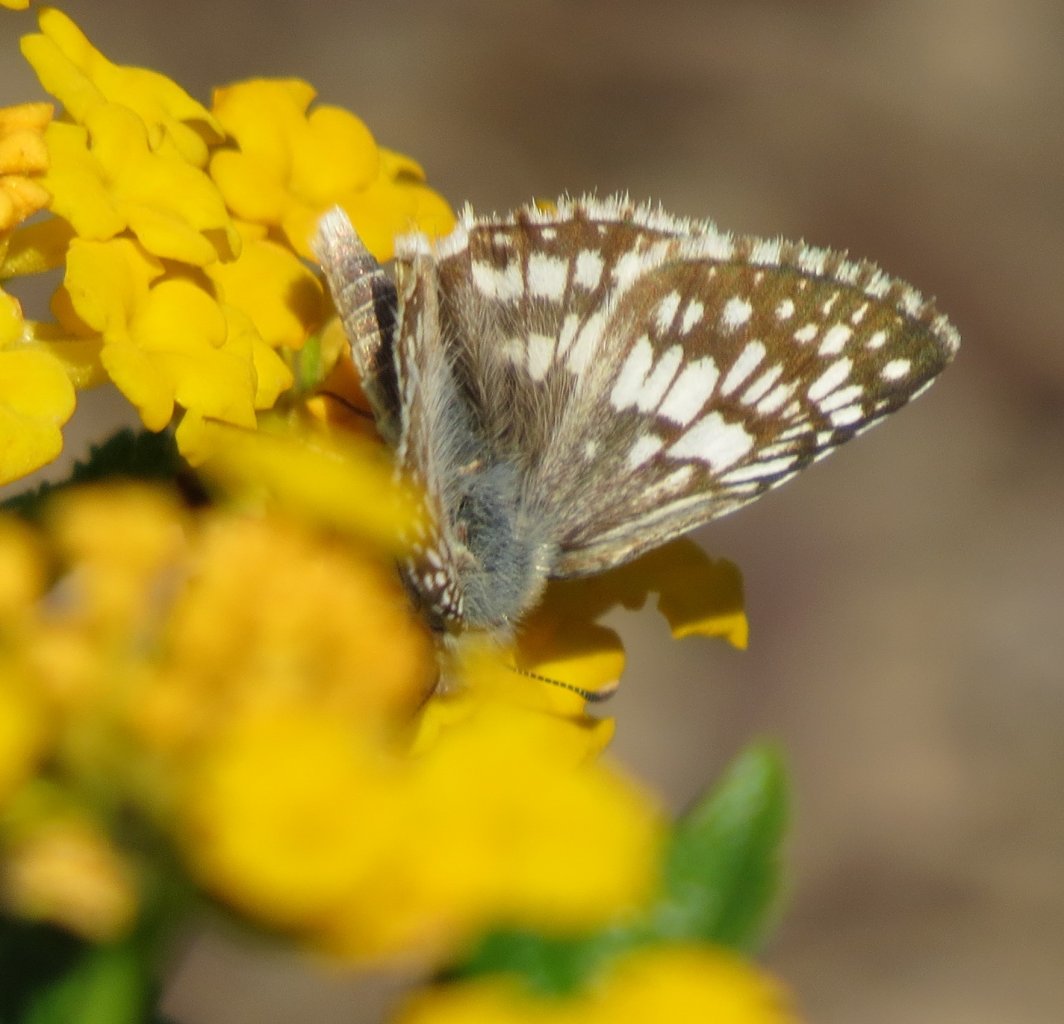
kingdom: Animalia
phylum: Arthropoda
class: Insecta
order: Lepidoptera
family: Hesperiidae
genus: Pyrgus
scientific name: Pyrgus communis
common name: White Checkered-Skipper
